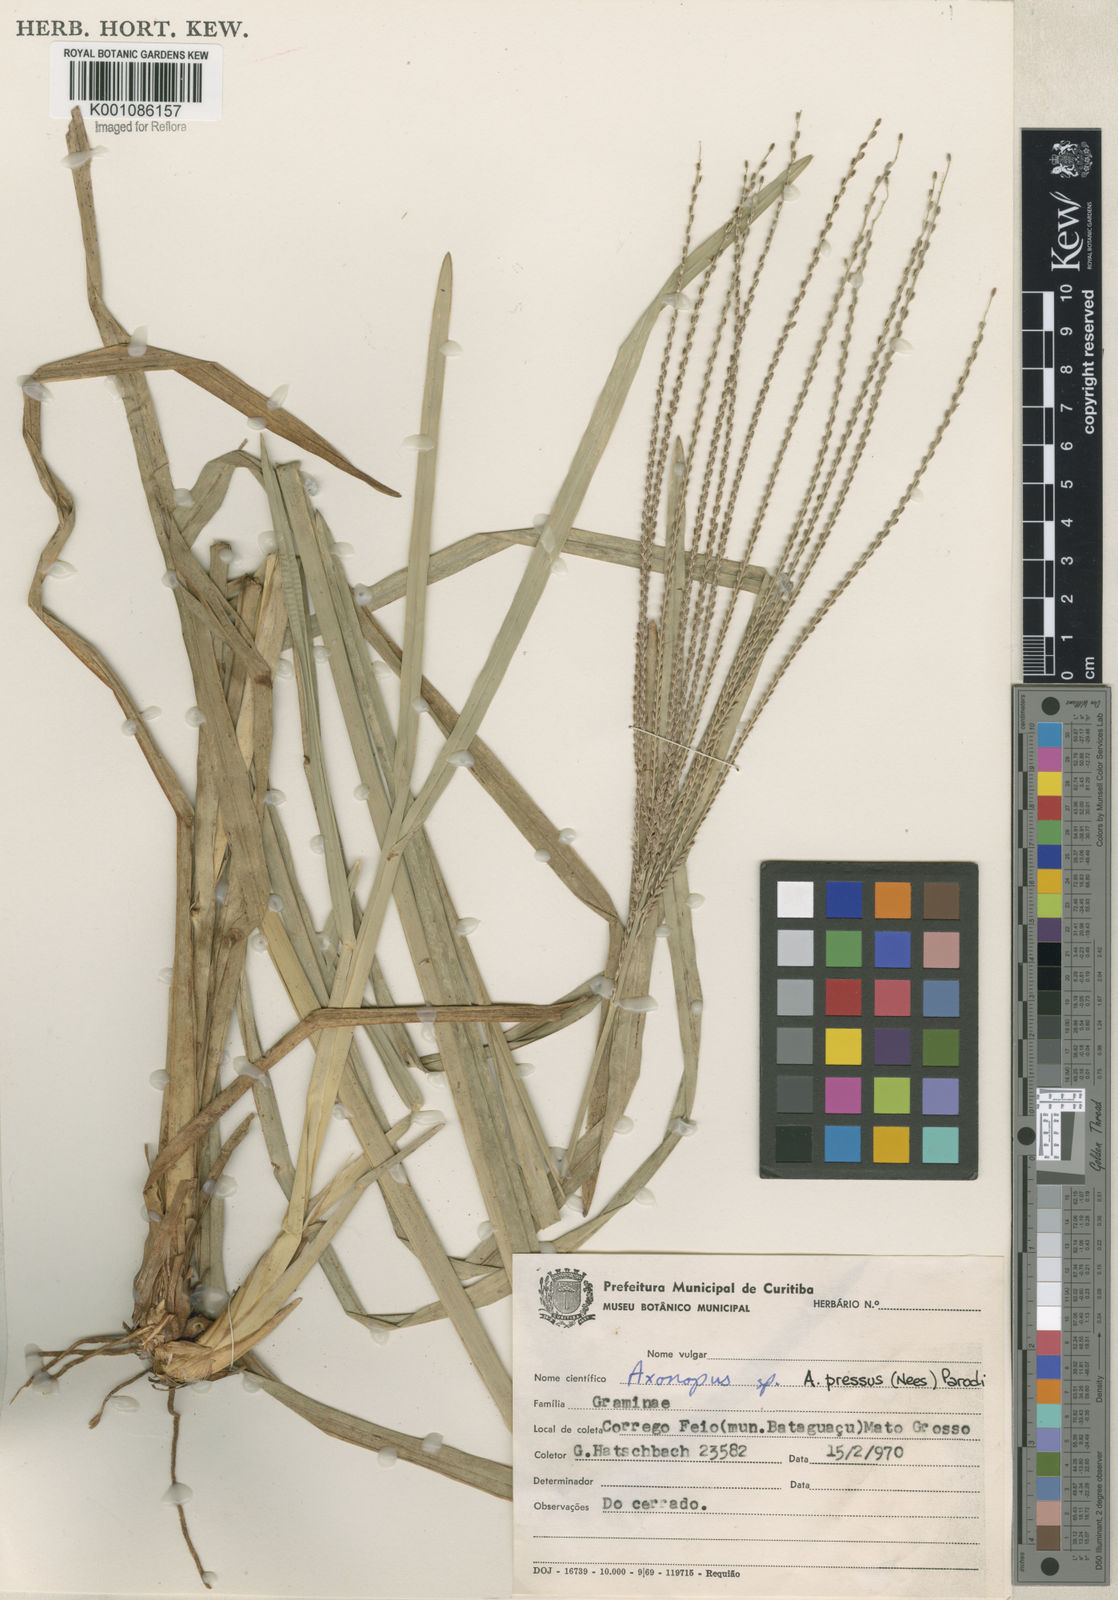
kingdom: Plantae
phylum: Tracheophyta
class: Liliopsida
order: Poales
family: Poaceae
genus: Axonopus
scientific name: Axonopus pressus
